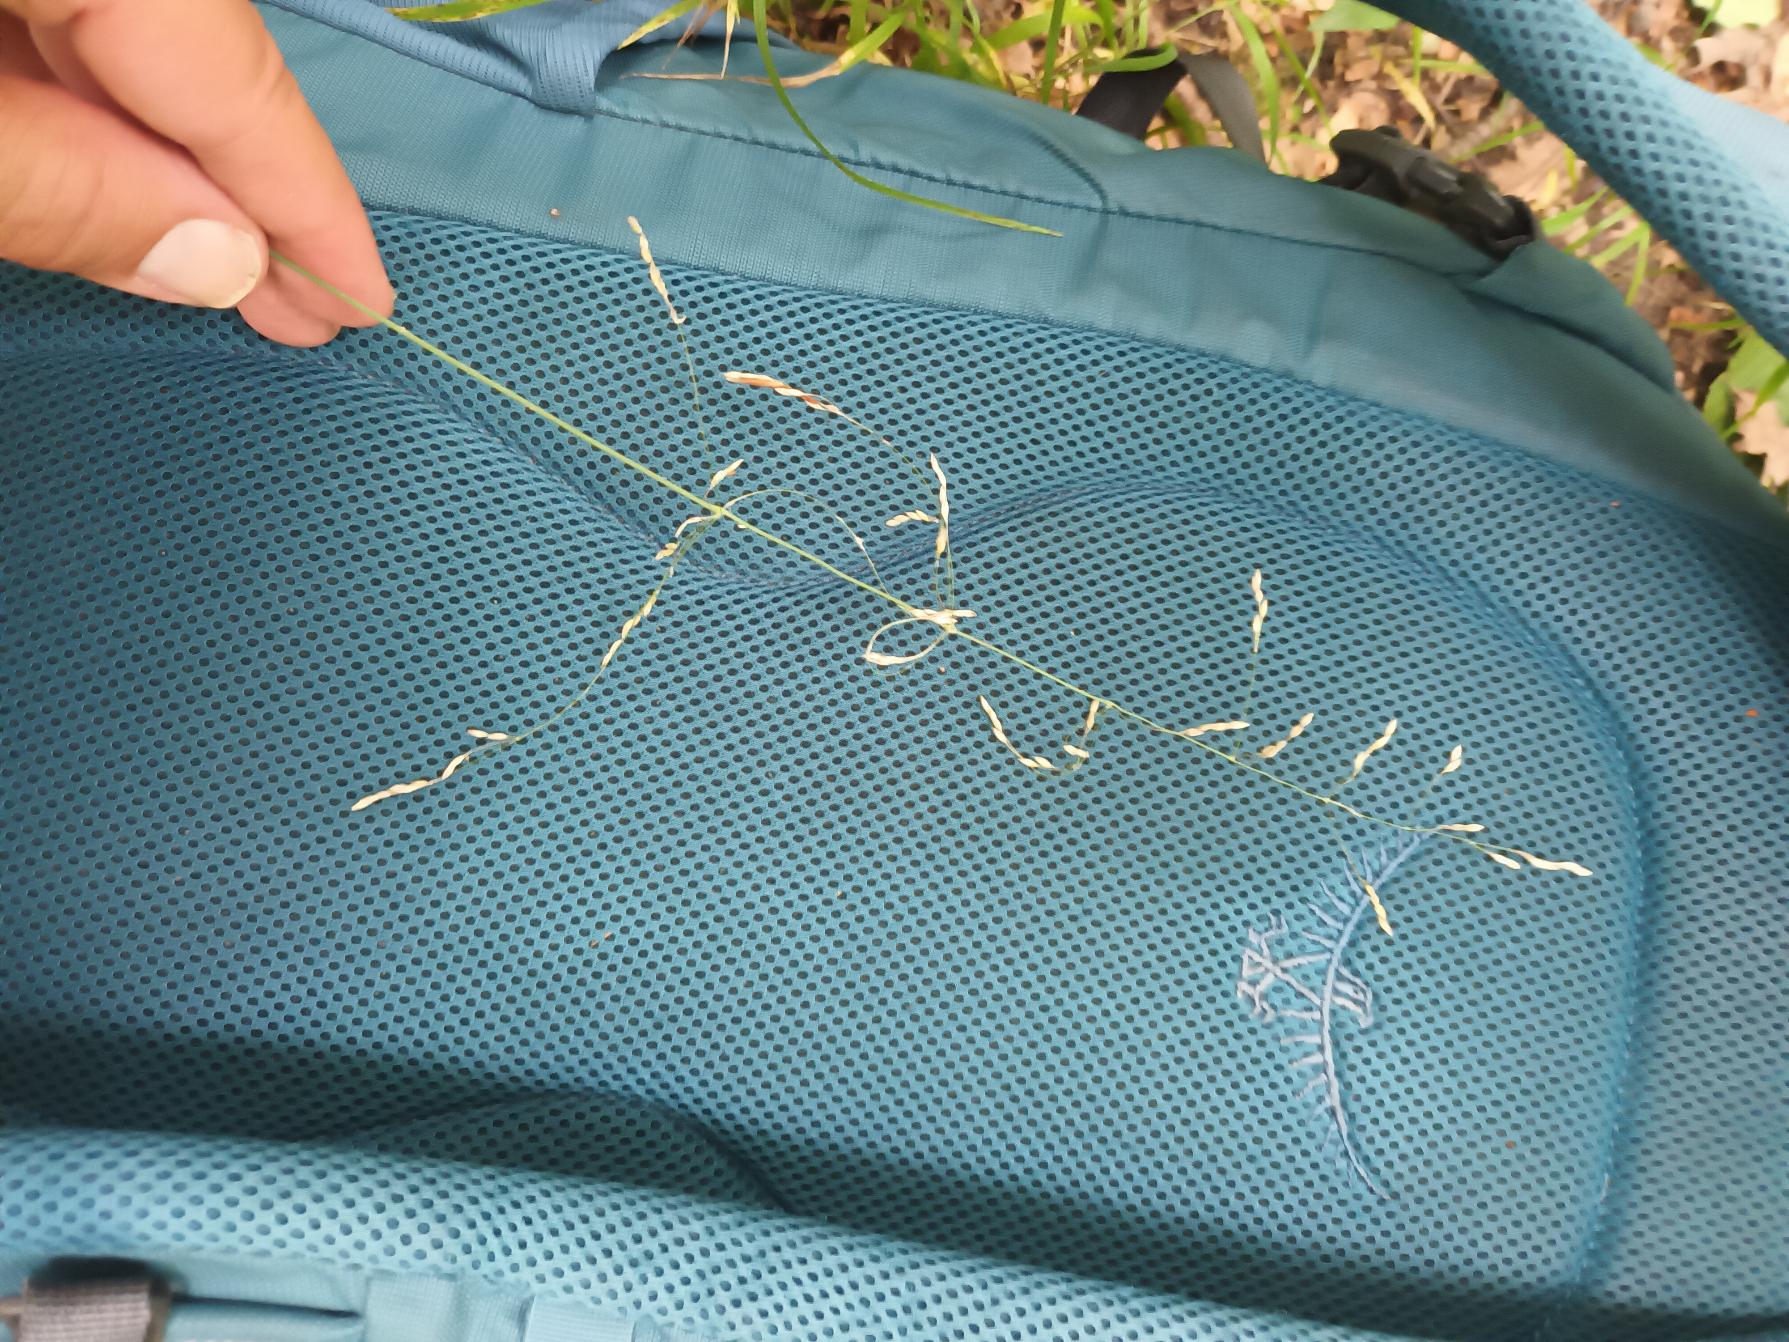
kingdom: Plantae
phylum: Tracheophyta
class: Liliopsida
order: Poales
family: Poaceae
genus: Milium
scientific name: Milium effusum
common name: Miliegræs
